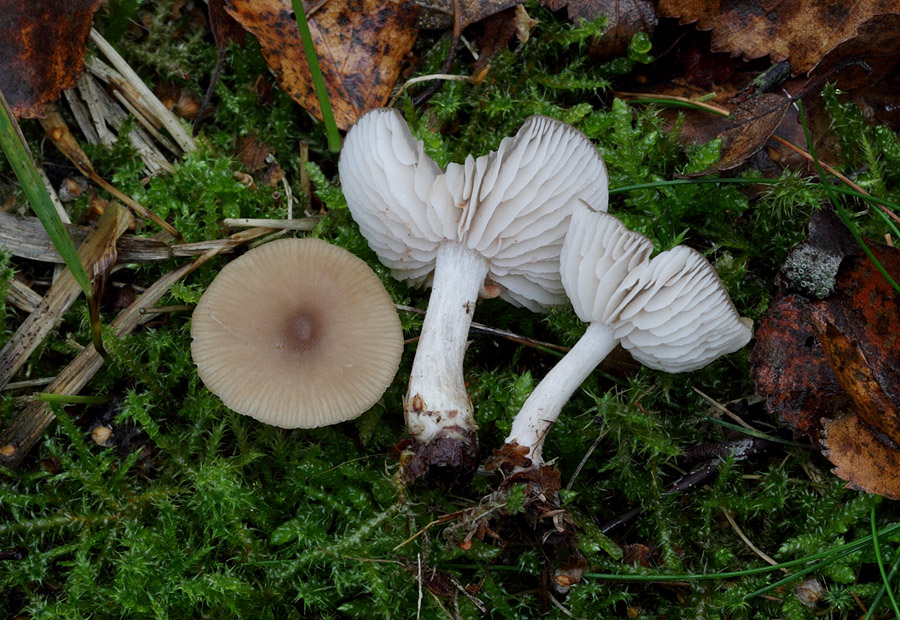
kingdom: Fungi
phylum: Basidiomycota
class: Agaricomycetes
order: Agaricales
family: Entolomataceae
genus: Entoloma
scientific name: Entoloma
